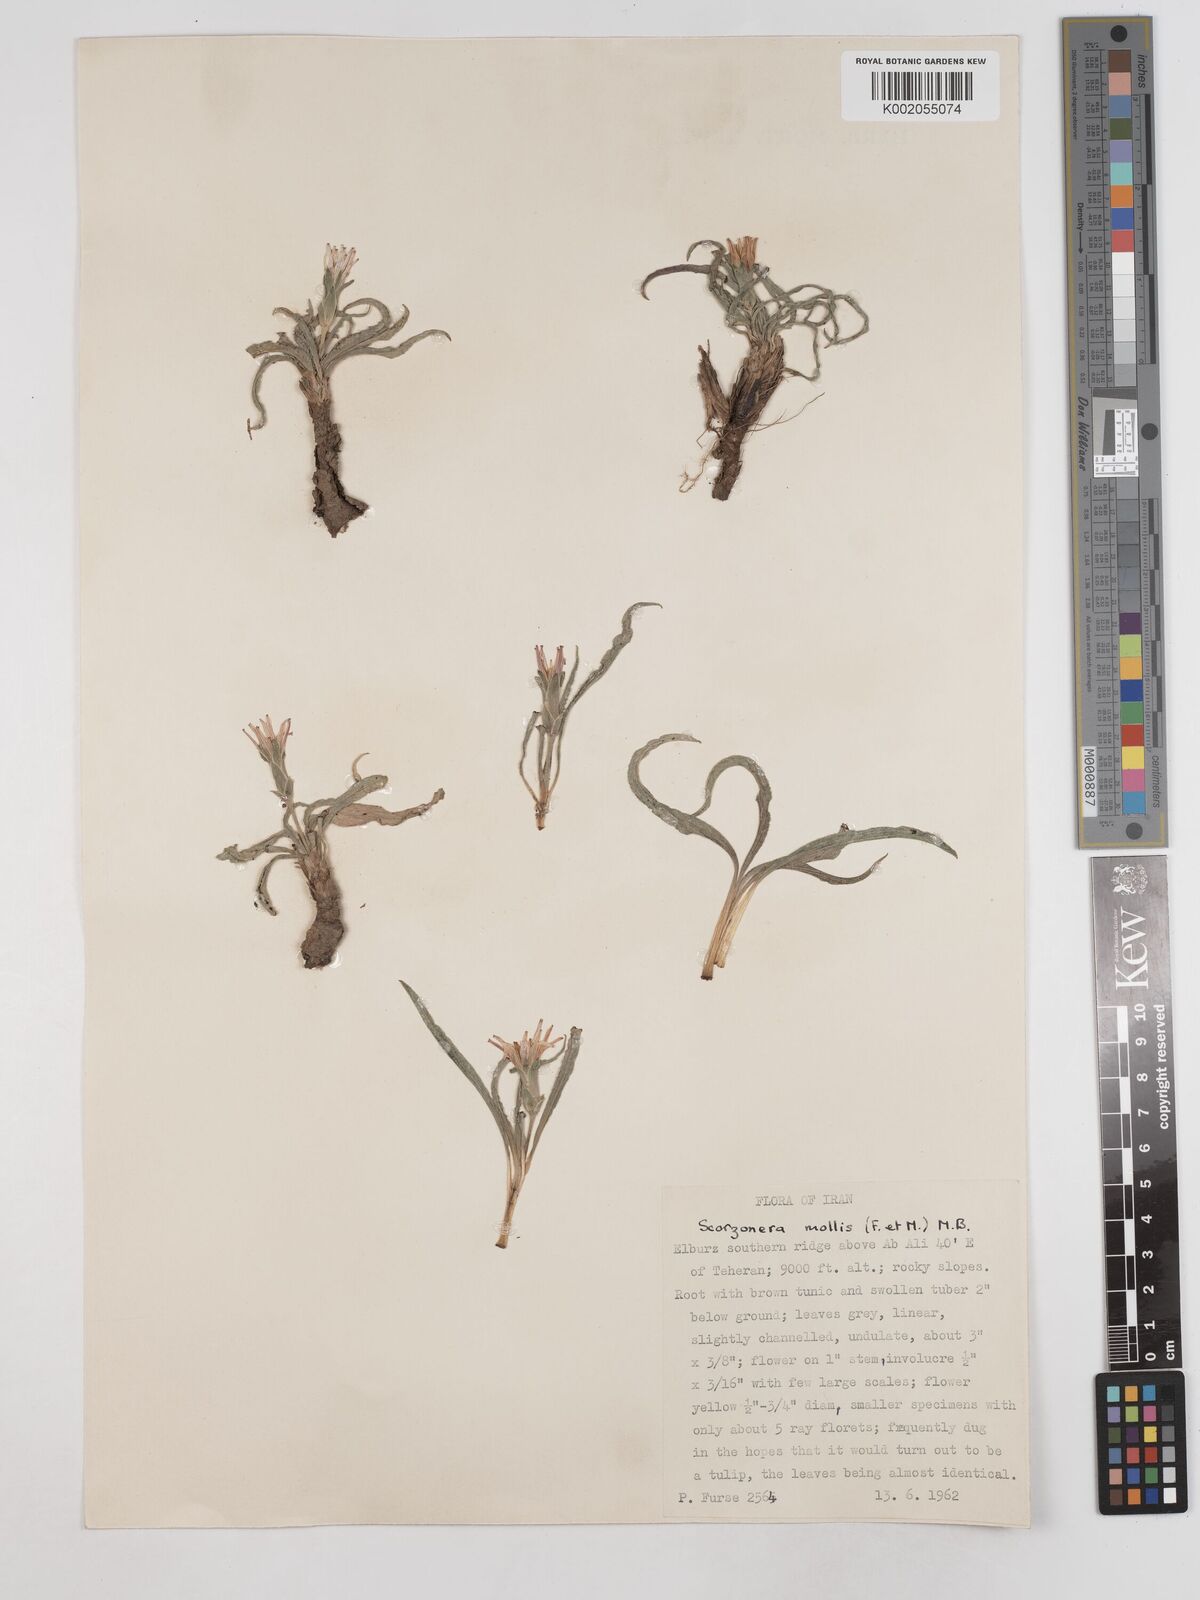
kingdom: Plantae
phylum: Tracheophyta
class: Magnoliopsida
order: Asterales
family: Asteraceae
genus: Candollea
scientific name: Candollea mollis
